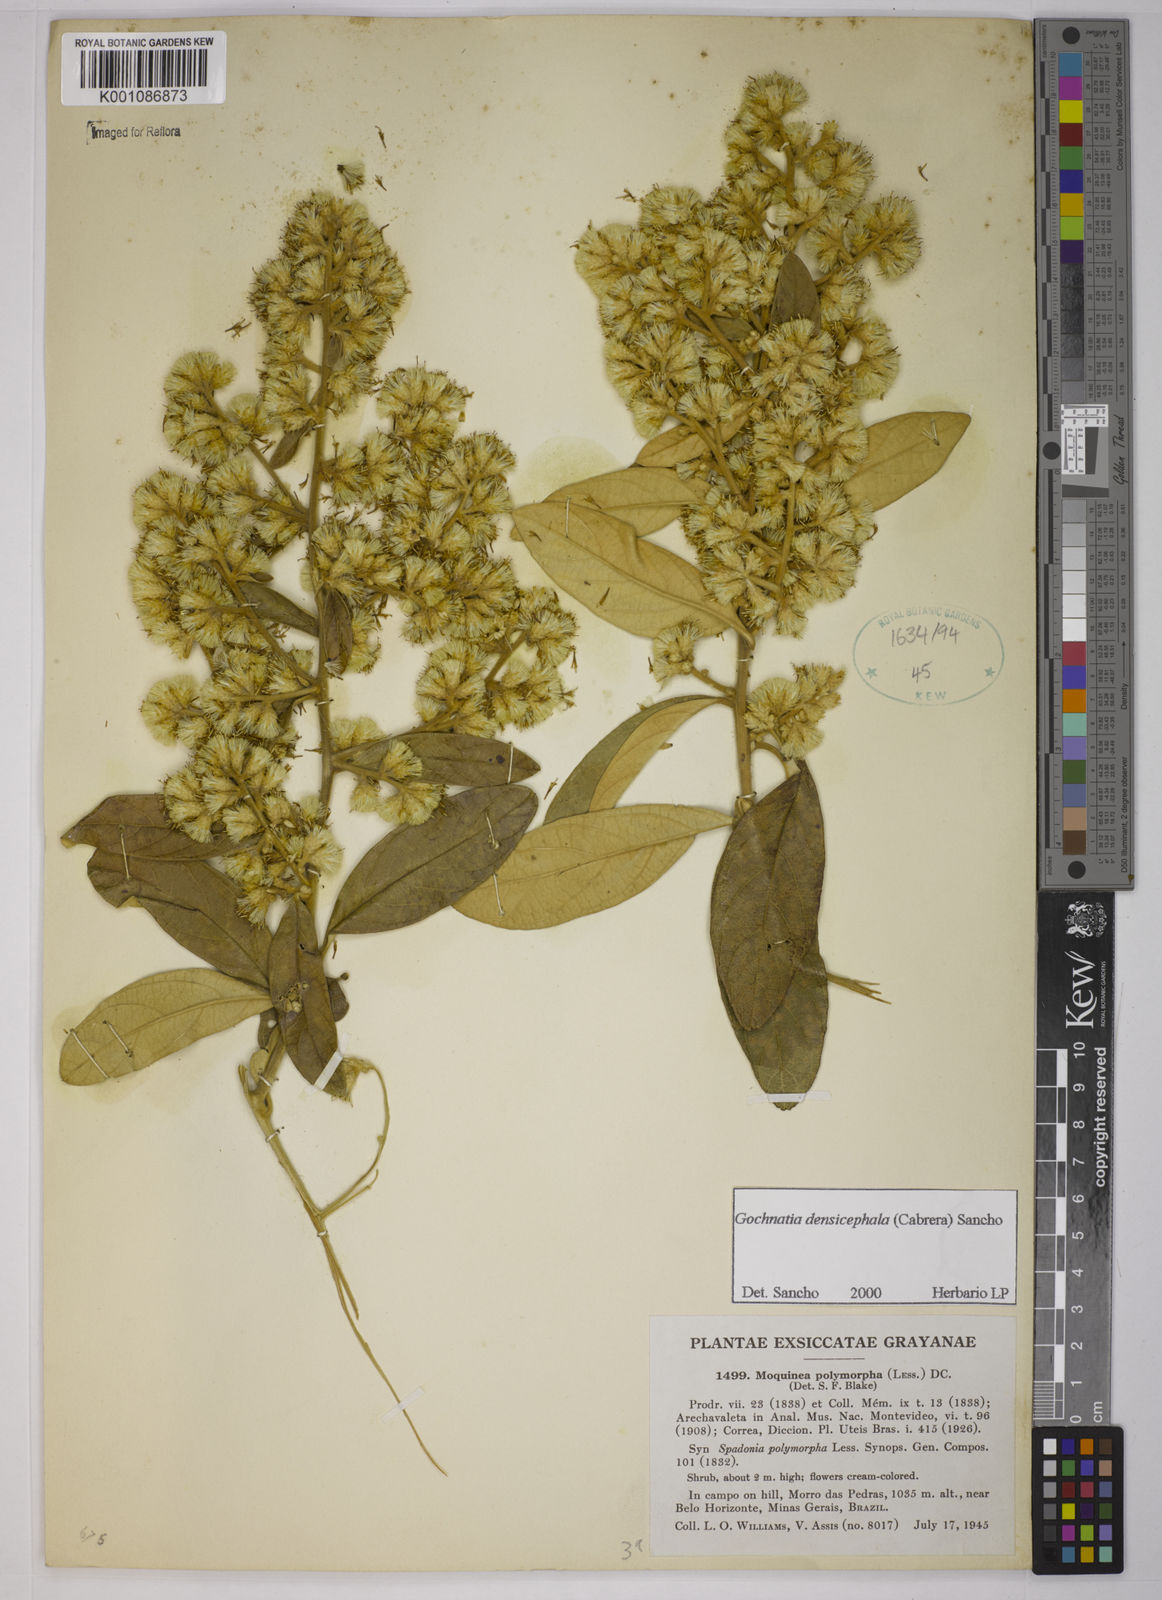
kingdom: Plantae
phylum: Tracheophyta
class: Magnoliopsida
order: Asterales
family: Asteraceae
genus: Moquiniastrum
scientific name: Moquiniastrum densicephalum
